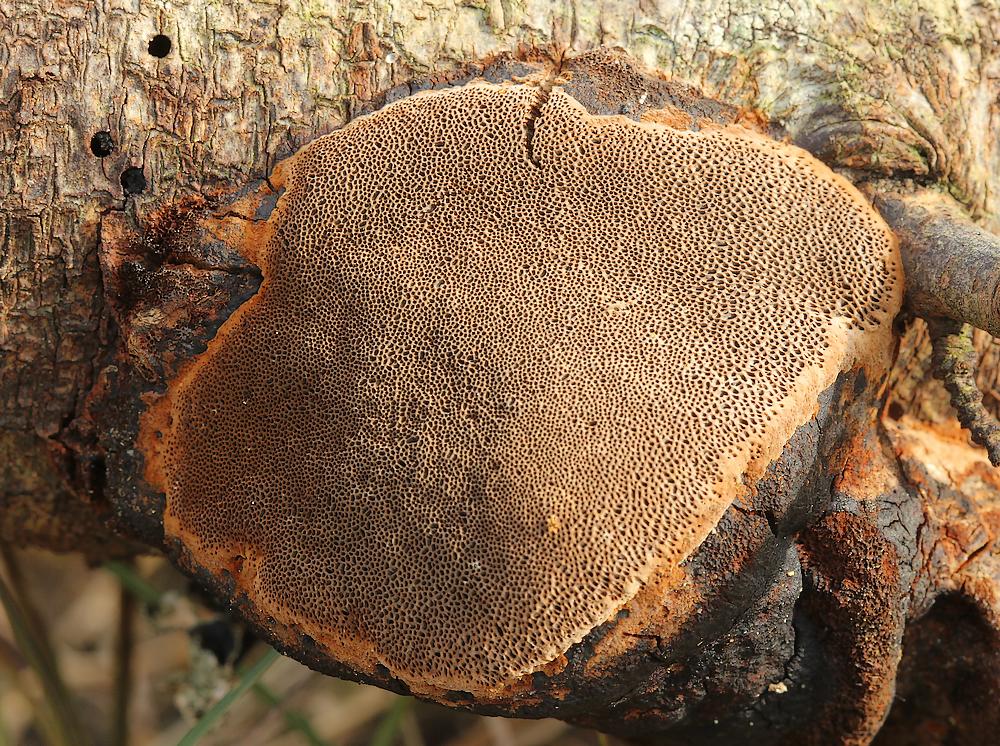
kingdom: Fungi
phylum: Basidiomycota
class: Agaricomycetes
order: Hymenochaetales
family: Hymenochaetaceae
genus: Phellinus
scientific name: Phellinus pomaceus
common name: blomme-ildporesvamp
